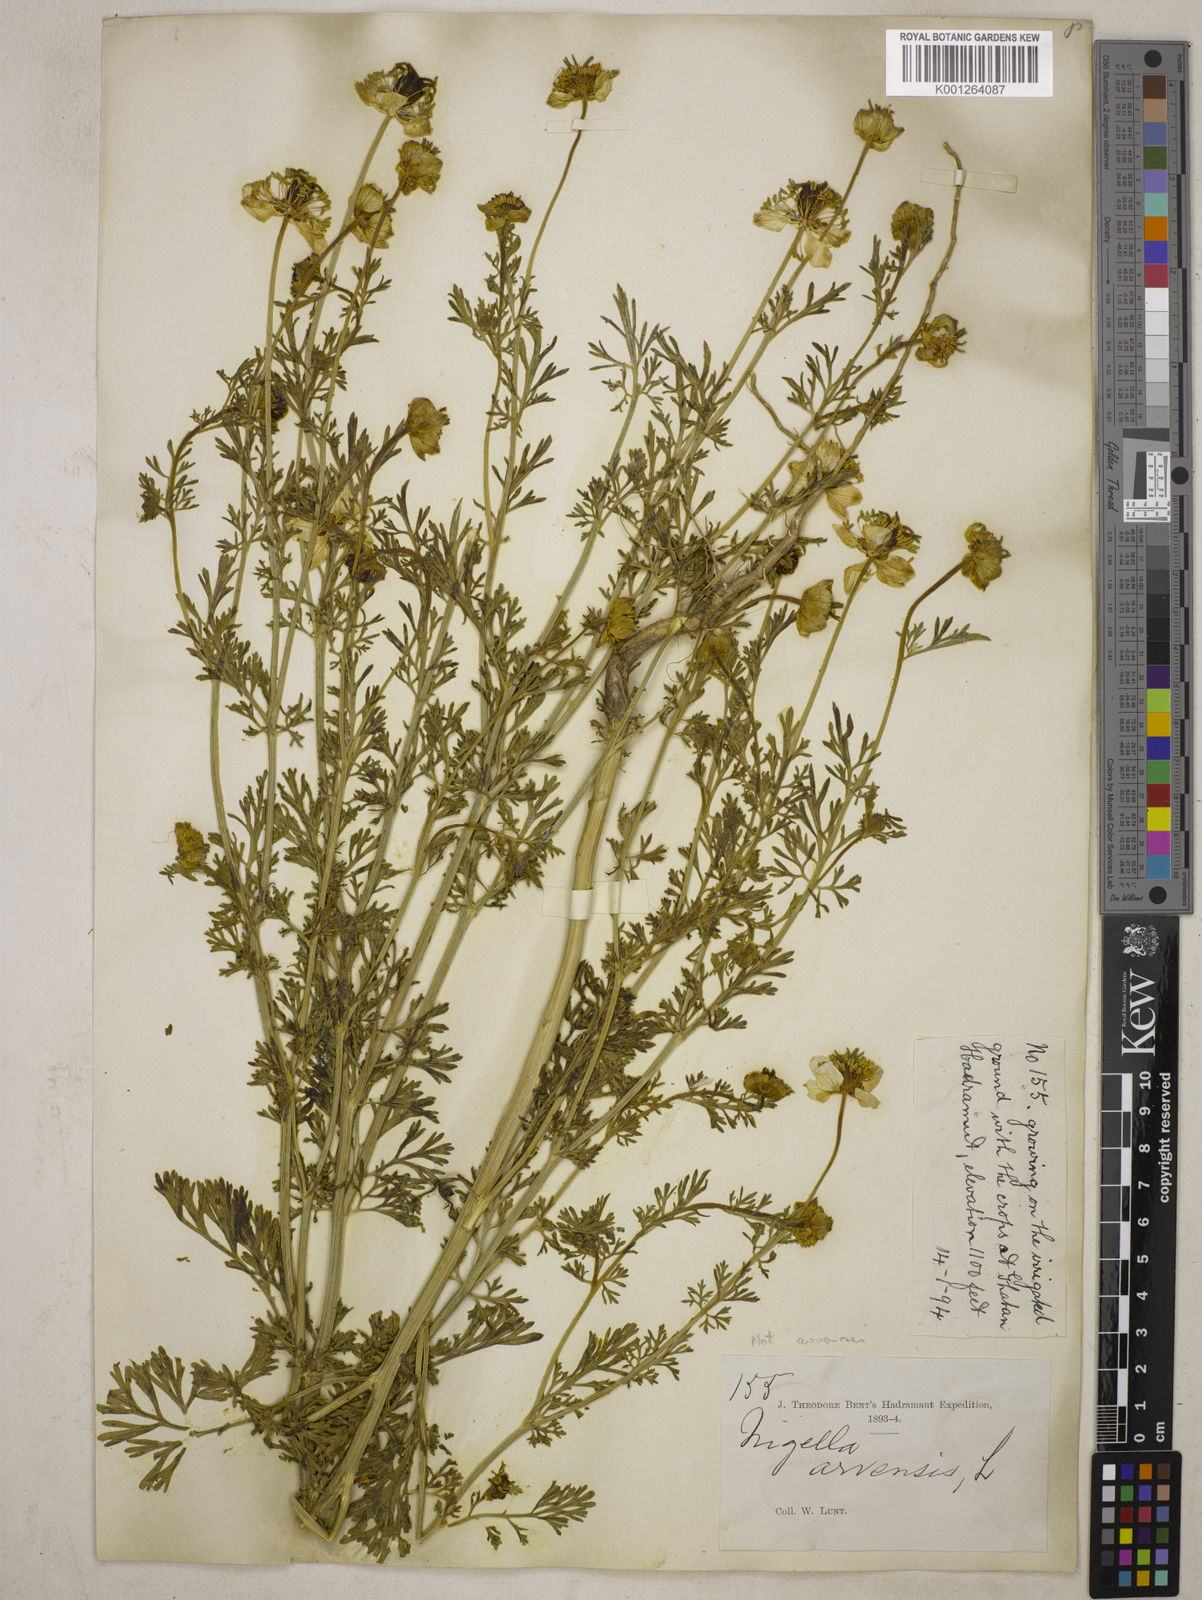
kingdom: Plantae
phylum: Tracheophyta
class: Magnoliopsida
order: Ranunculales
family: Ranunculaceae
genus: Nigella
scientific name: Nigella sativa
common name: Black-cumin
